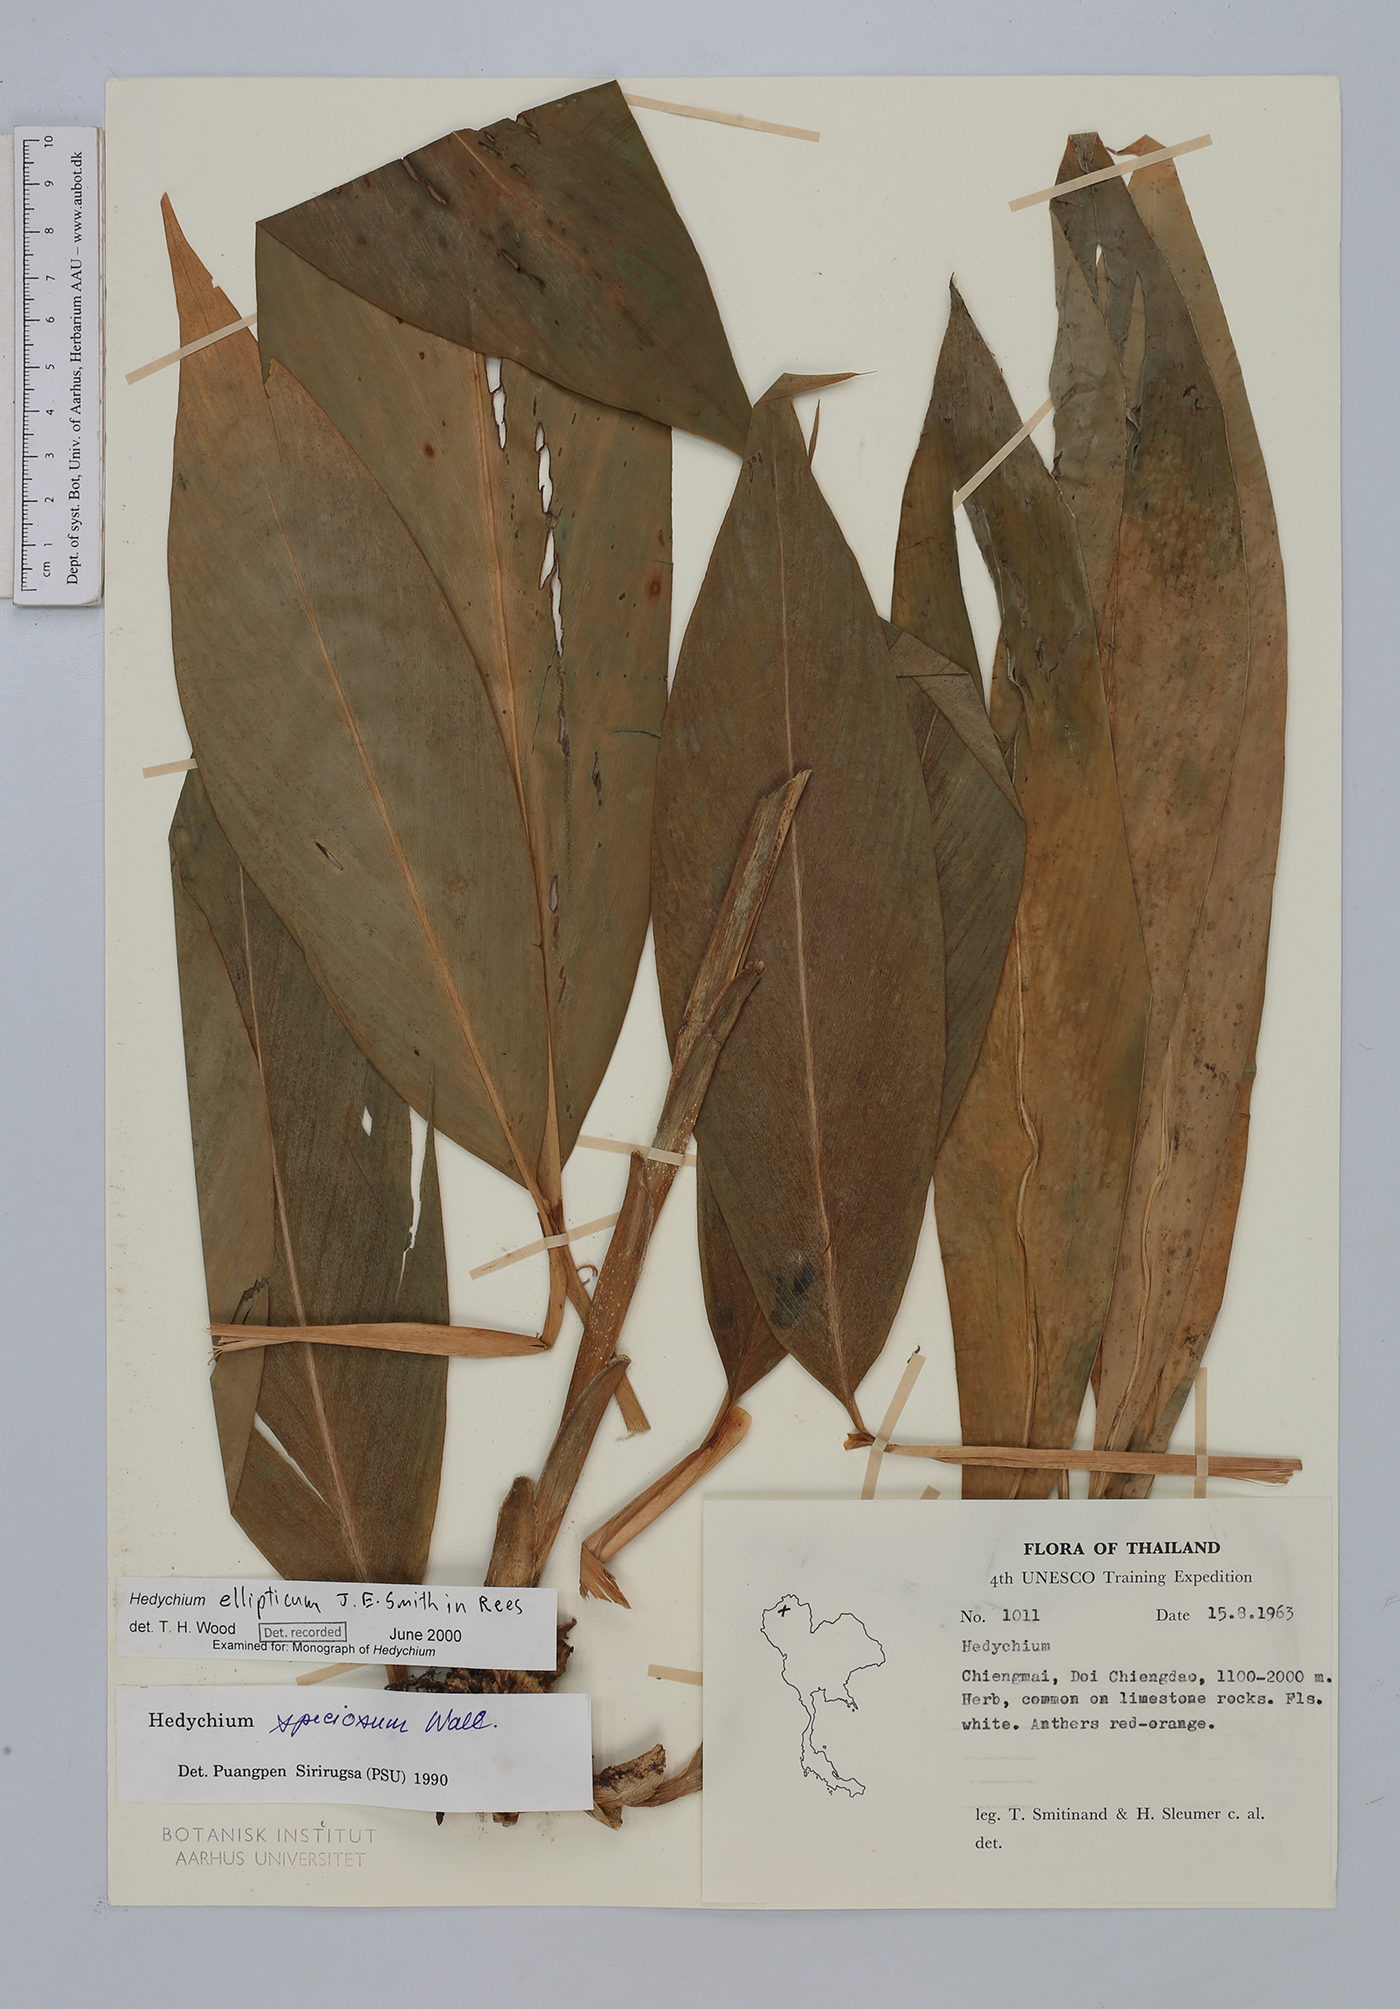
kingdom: Plantae
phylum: Tracheophyta
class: Liliopsida
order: Zingiberales
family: Zingiberaceae
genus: Hedychium
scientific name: Hedychium speciosum
